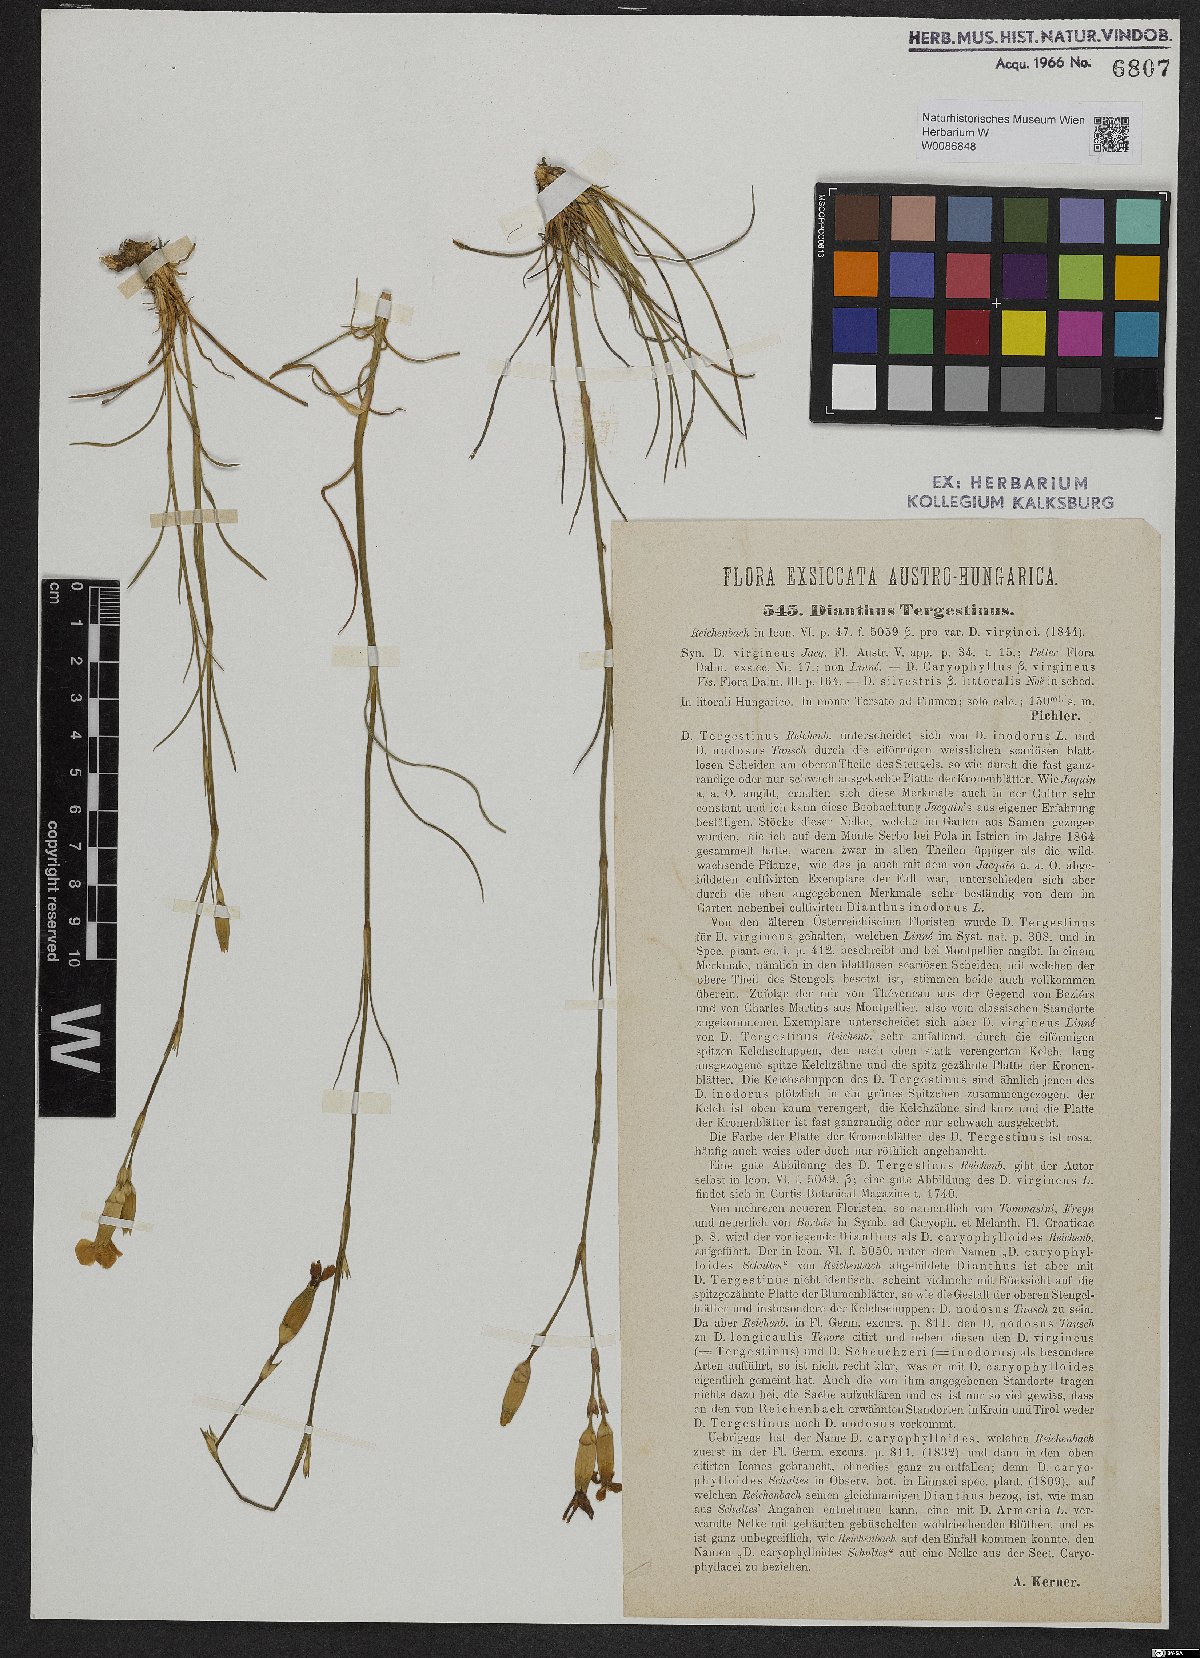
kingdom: Plantae
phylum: Tracheophyta
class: Magnoliopsida
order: Caryophyllales
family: Caryophyllaceae
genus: Dianthus
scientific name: Dianthus sylvestris
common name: Wood pink
